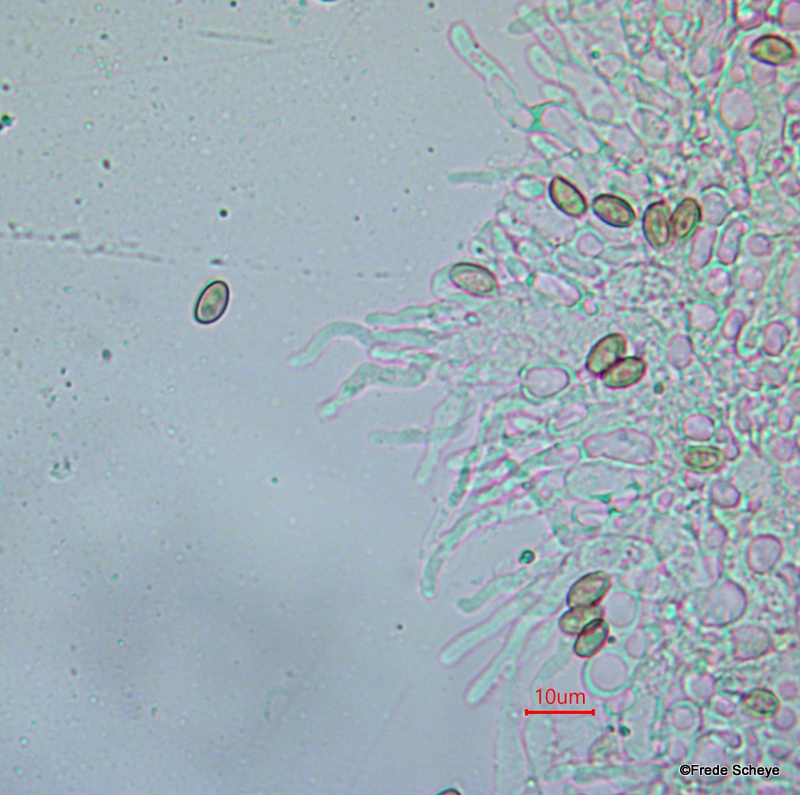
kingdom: Fungi
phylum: Basidiomycota
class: Agaricomycetes
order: Agaricales
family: Bolbitiaceae
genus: Conocybe
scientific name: Conocybe arrhenii
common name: ring-dansehat
